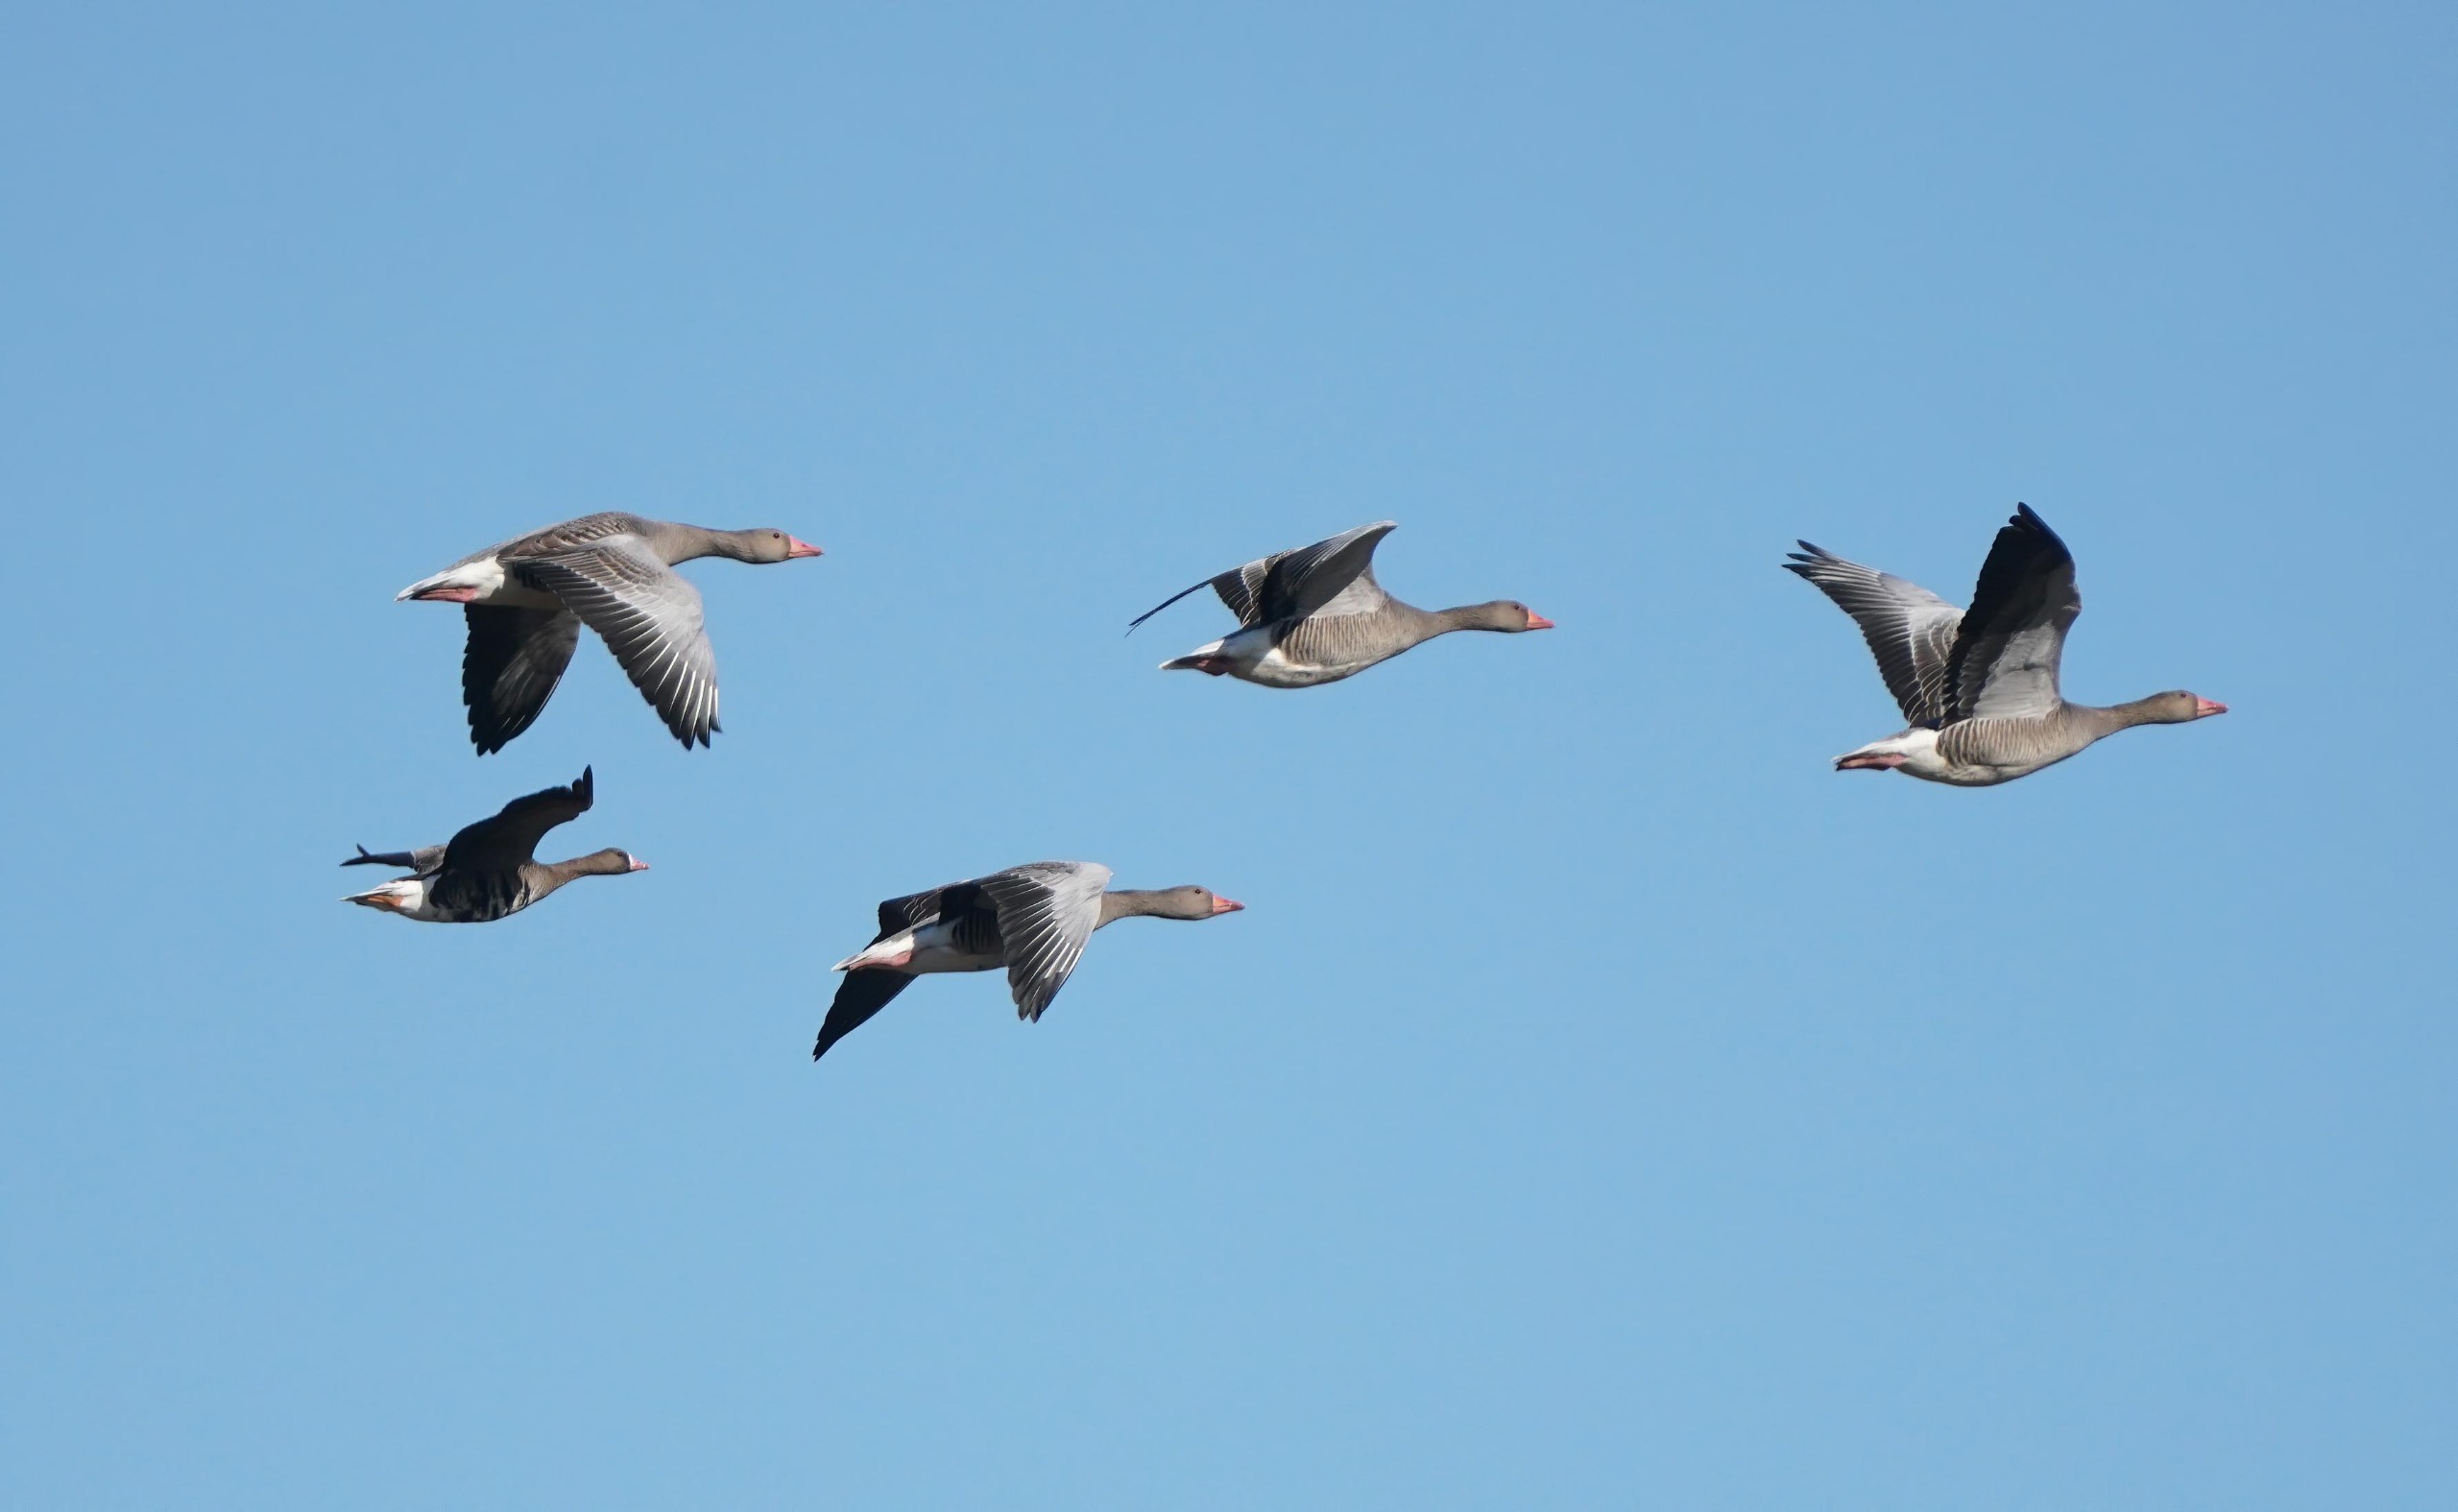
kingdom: Animalia
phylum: Chordata
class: Aves
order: Anseriformes
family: Anatidae
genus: Anser
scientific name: Anser anser
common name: Grågås
